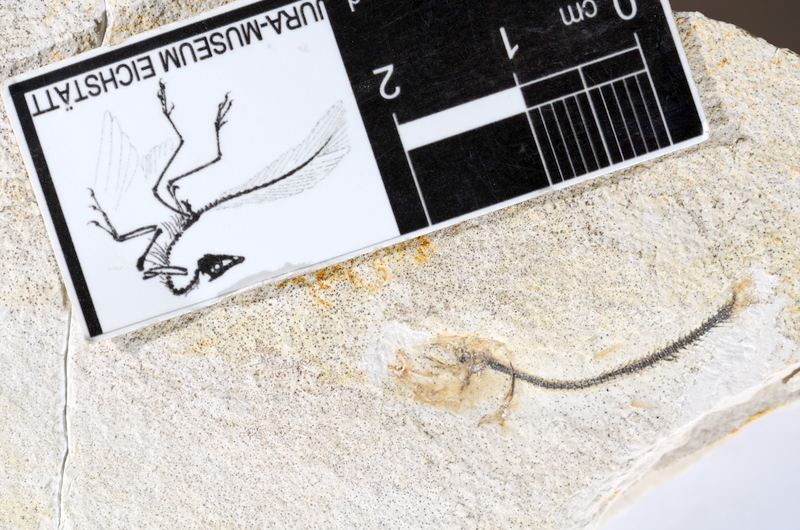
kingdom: Animalia
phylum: Chordata
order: Salmoniformes
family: Orthogonikleithridae
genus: Orthogonikleithrus
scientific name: Orthogonikleithrus hoelli
